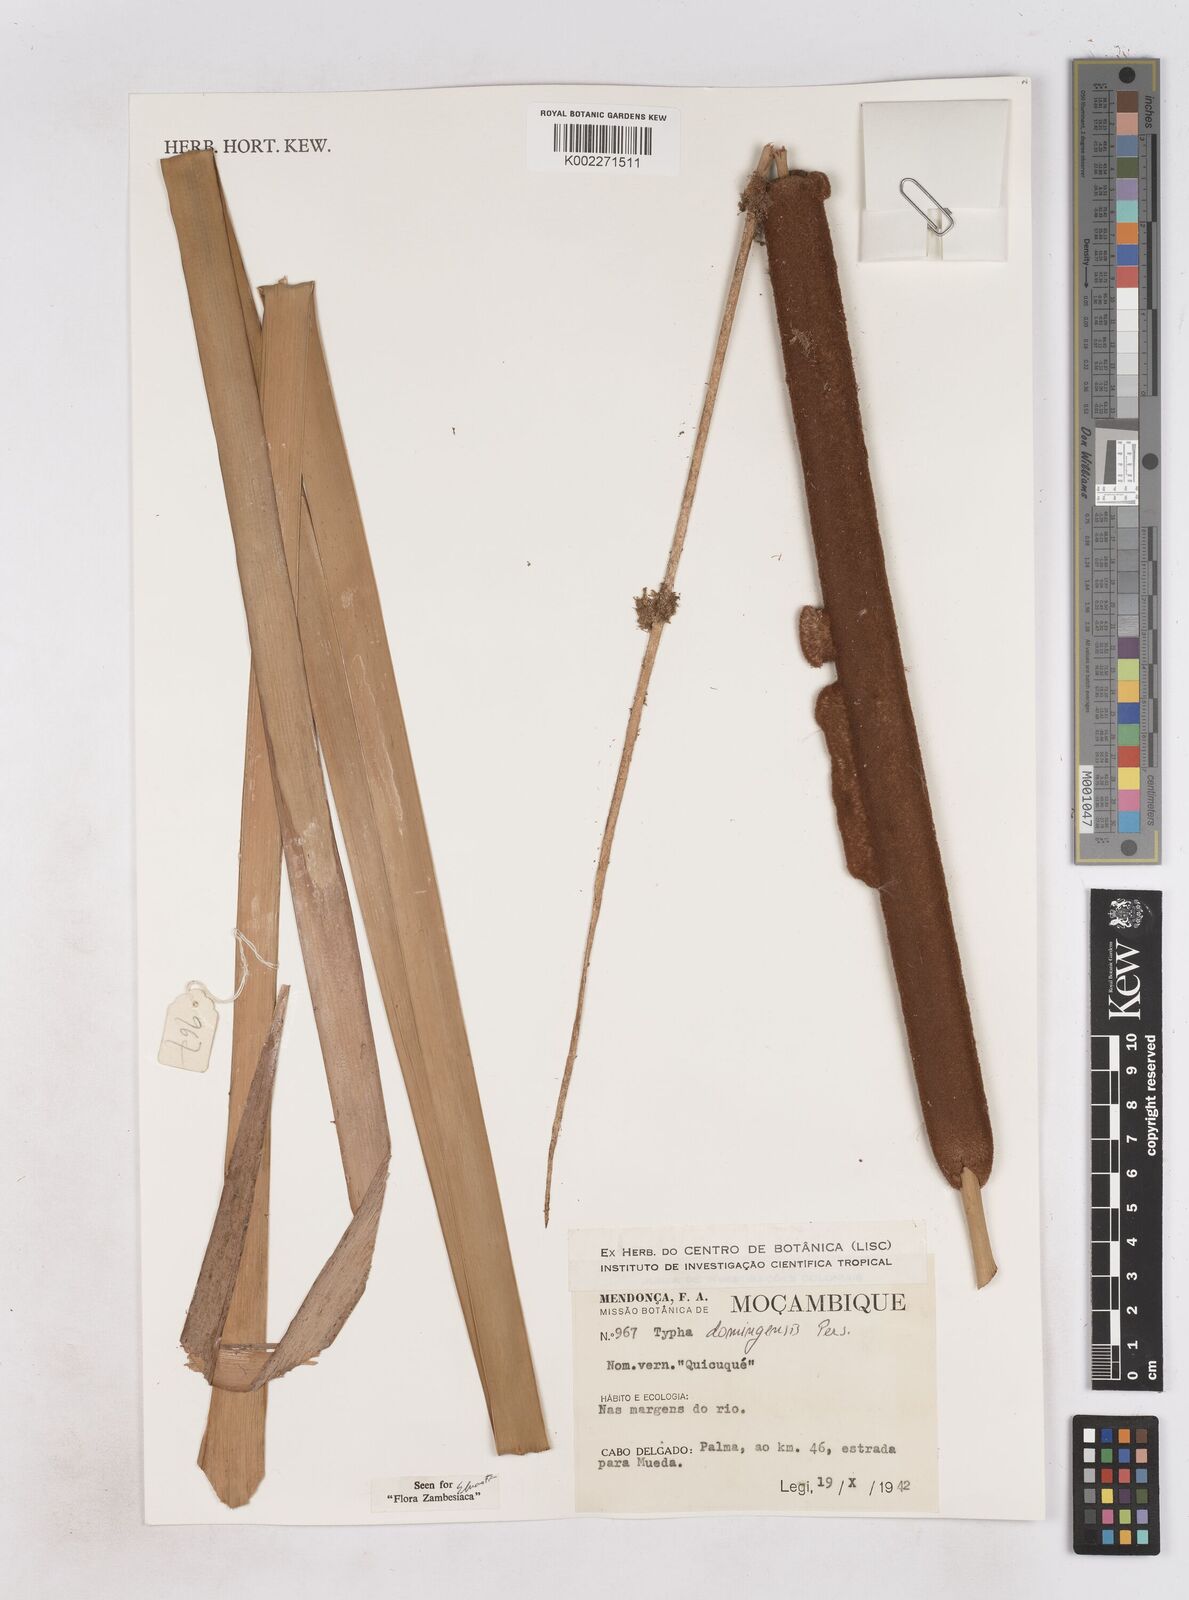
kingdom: Plantae
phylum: Tracheophyta
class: Liliopsida
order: Poales
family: Typhaceae
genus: Typha
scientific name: Typha domingensis
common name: Southern cattail
